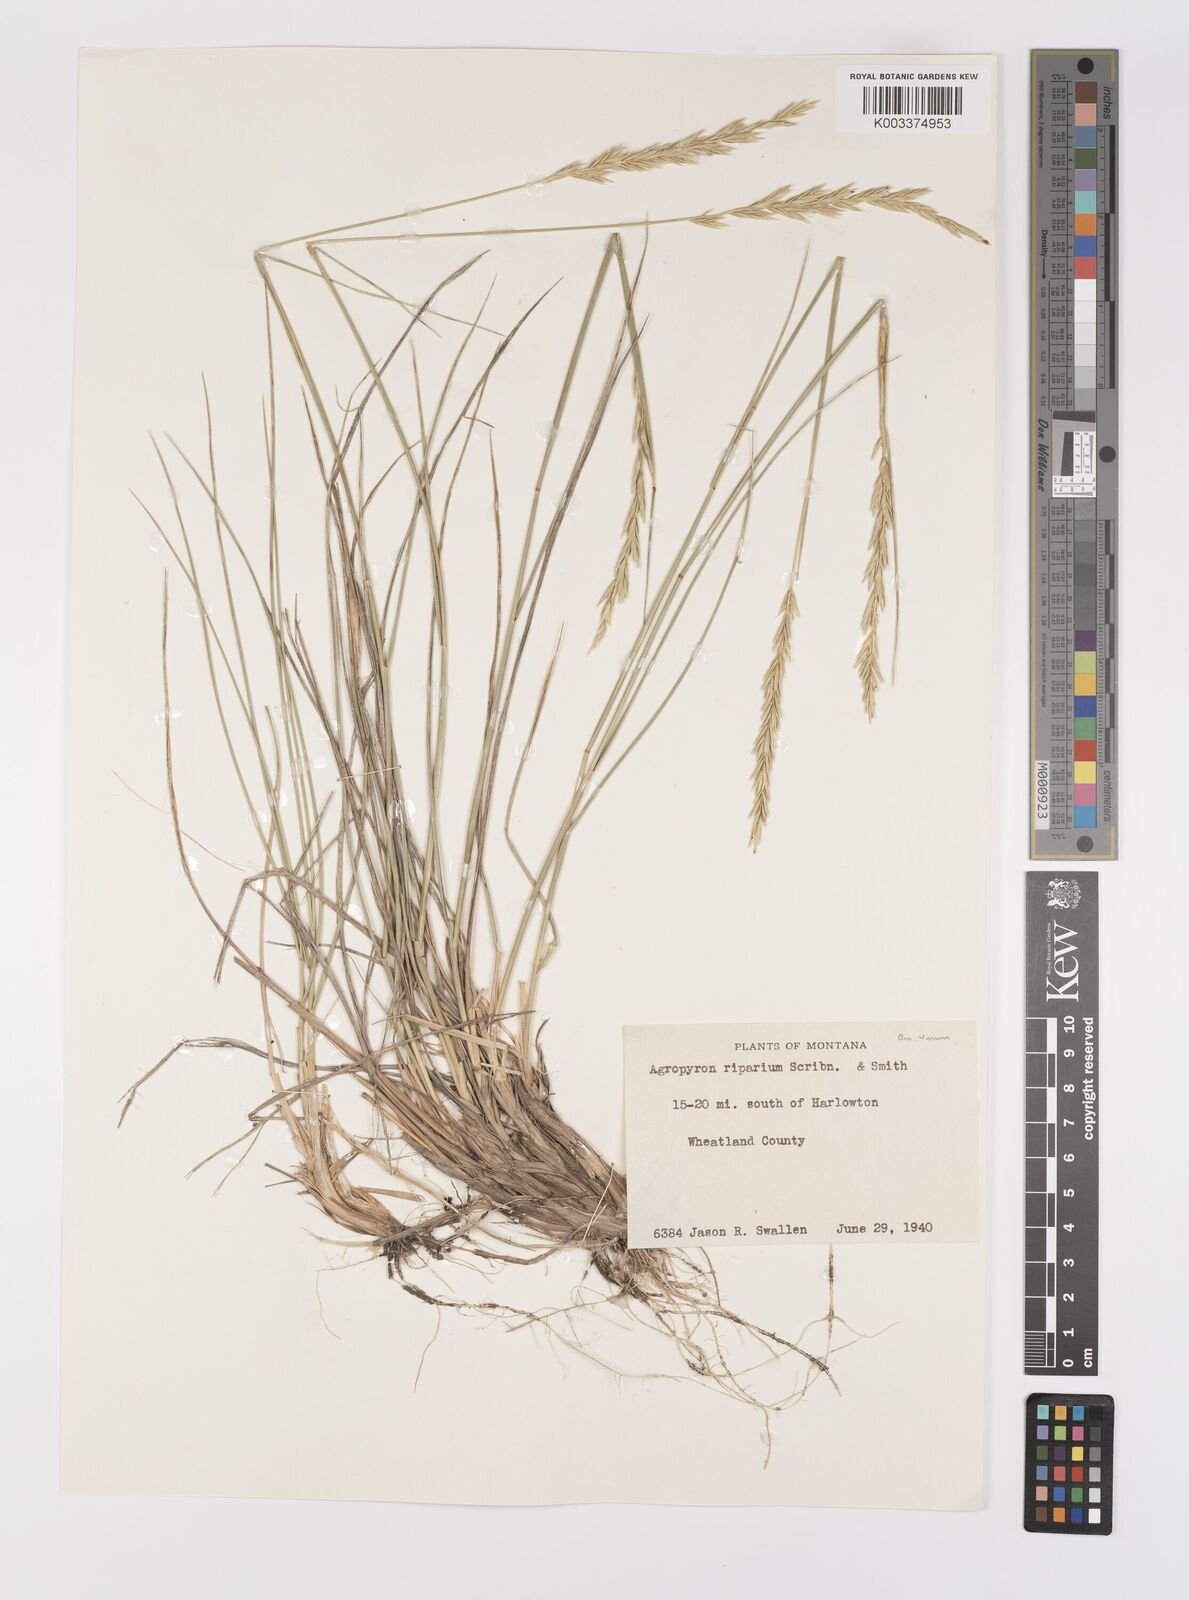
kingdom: Plantae
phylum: Tracheophyta
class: Liliopsida
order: Poales
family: Poaceae
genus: Elymus
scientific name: Elymus lanceolatus
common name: Thick-spike wheatgrass
